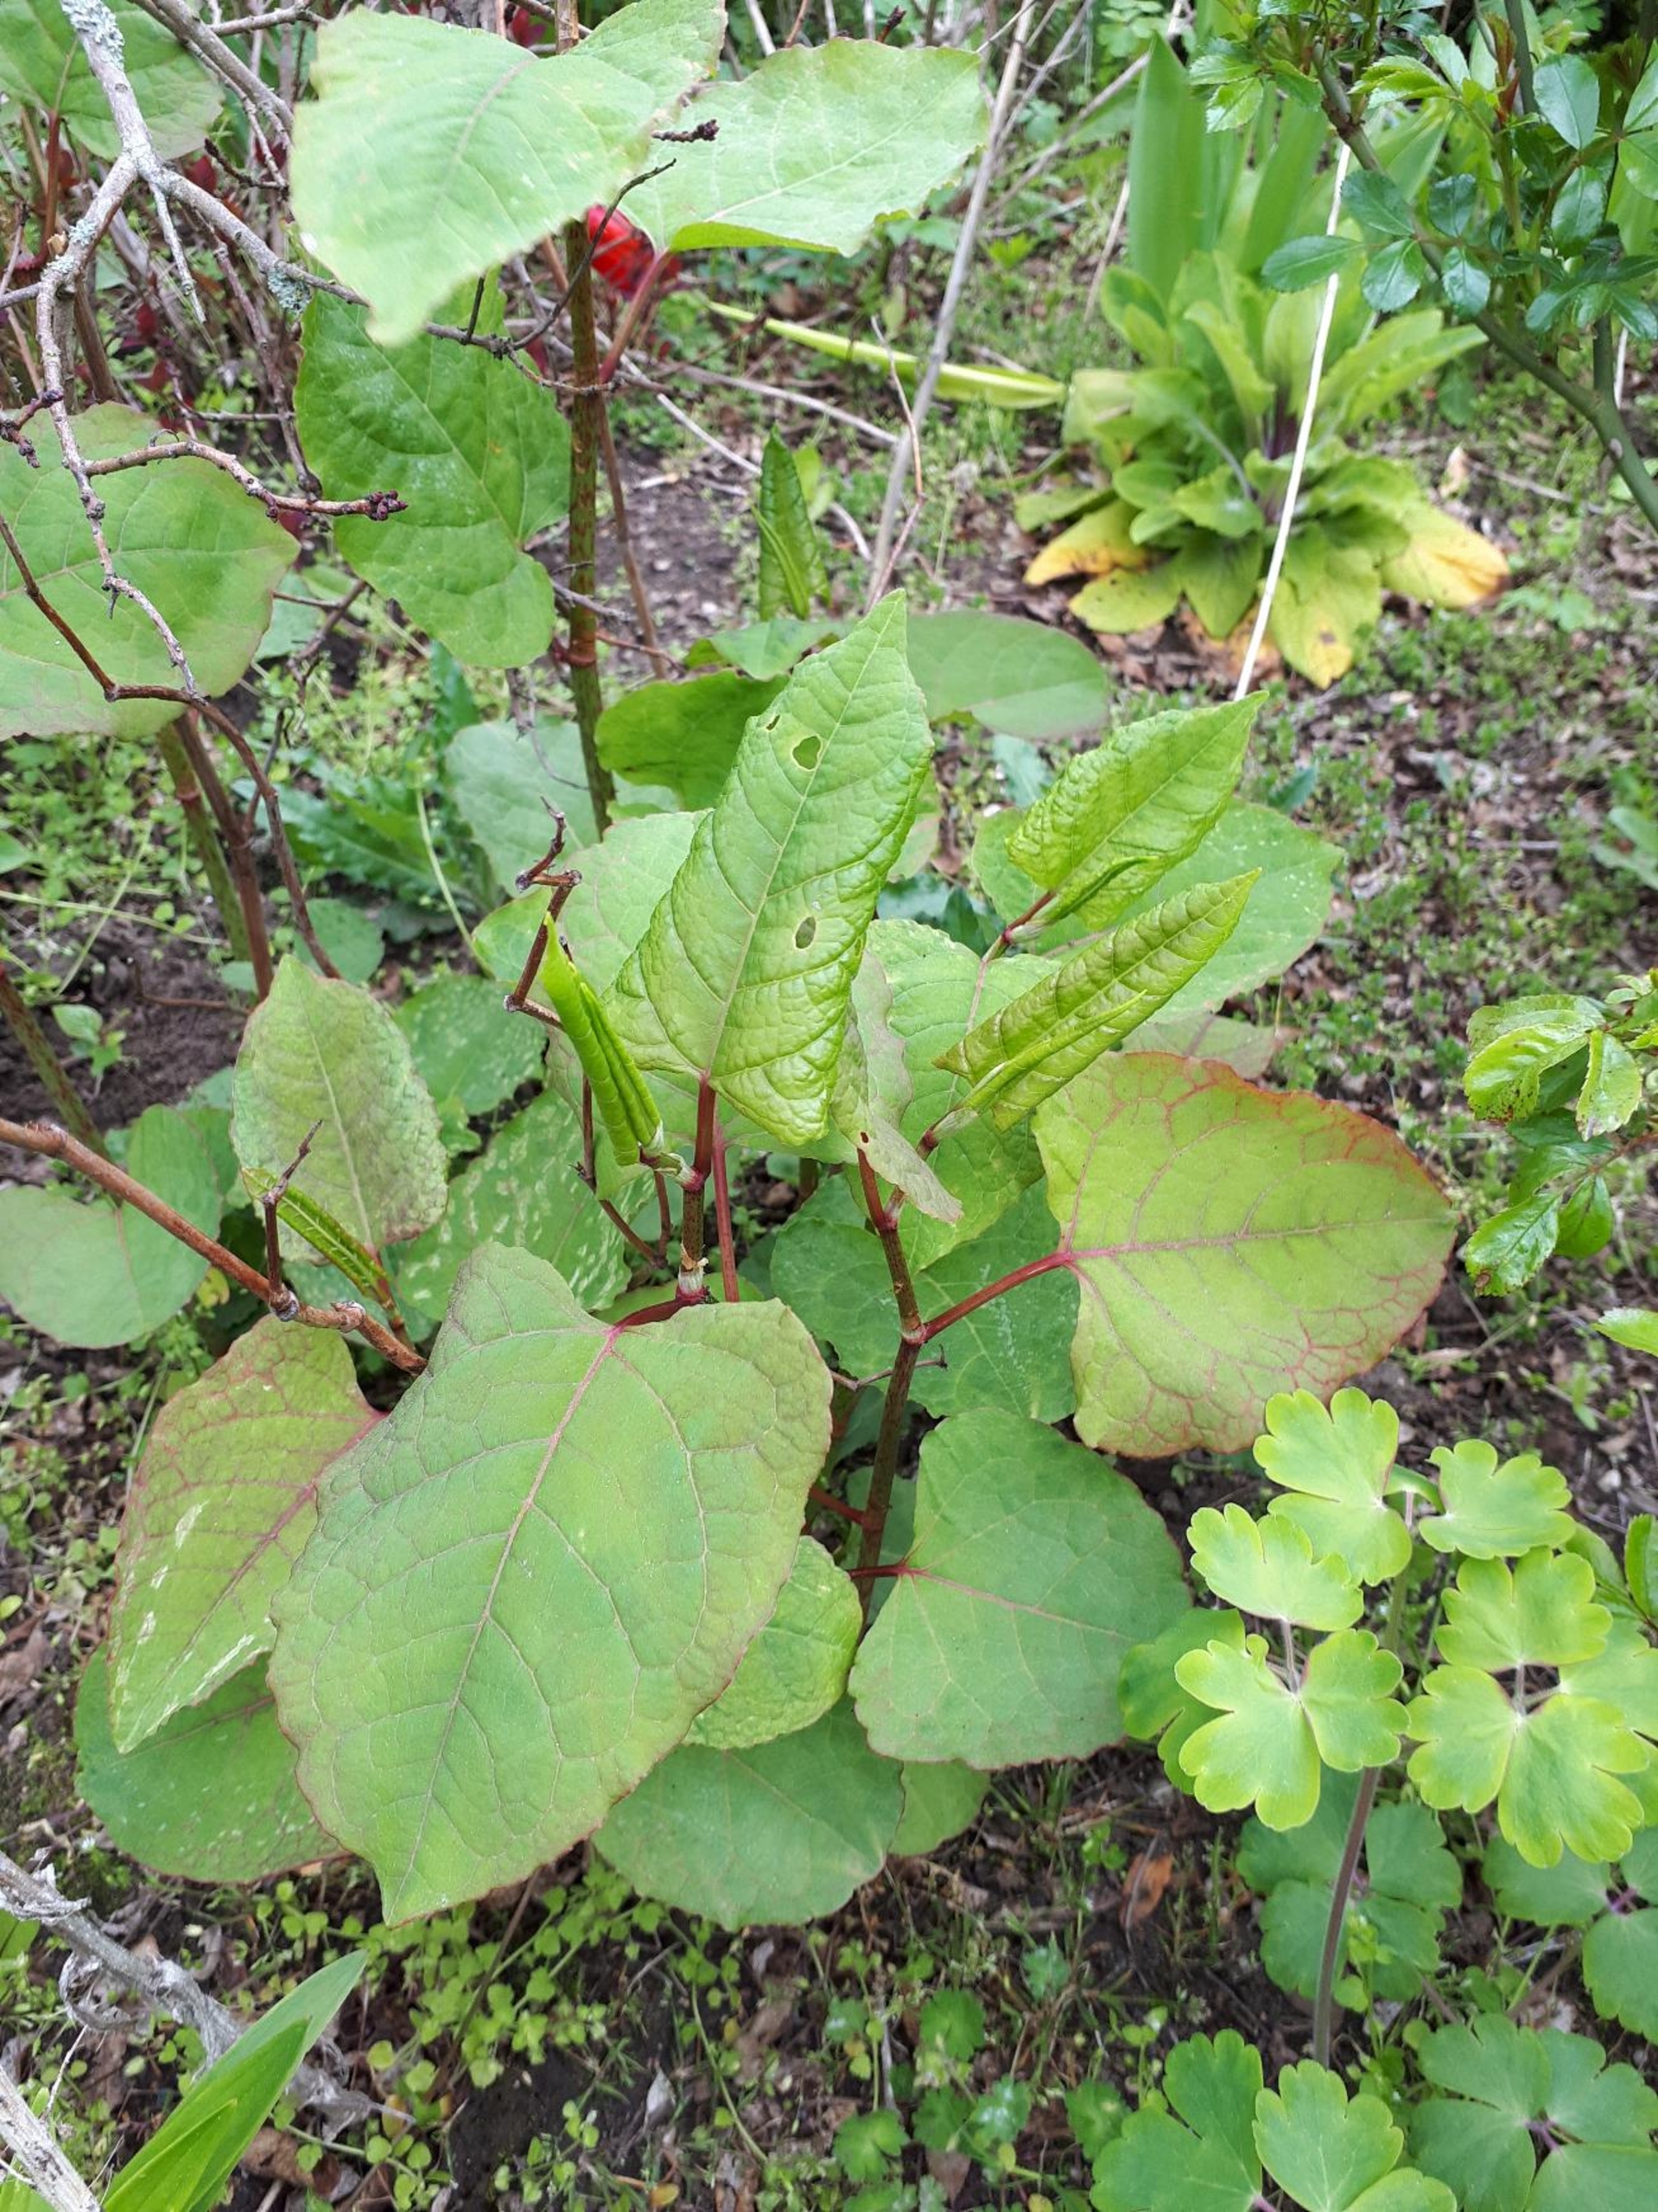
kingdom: Plantae
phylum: Tracheophyta
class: Magnoliopsida
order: Caryophyllales
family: Polygonaceae
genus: Reynoutria
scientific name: Reynoutria japonica
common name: Japan-pileurt
